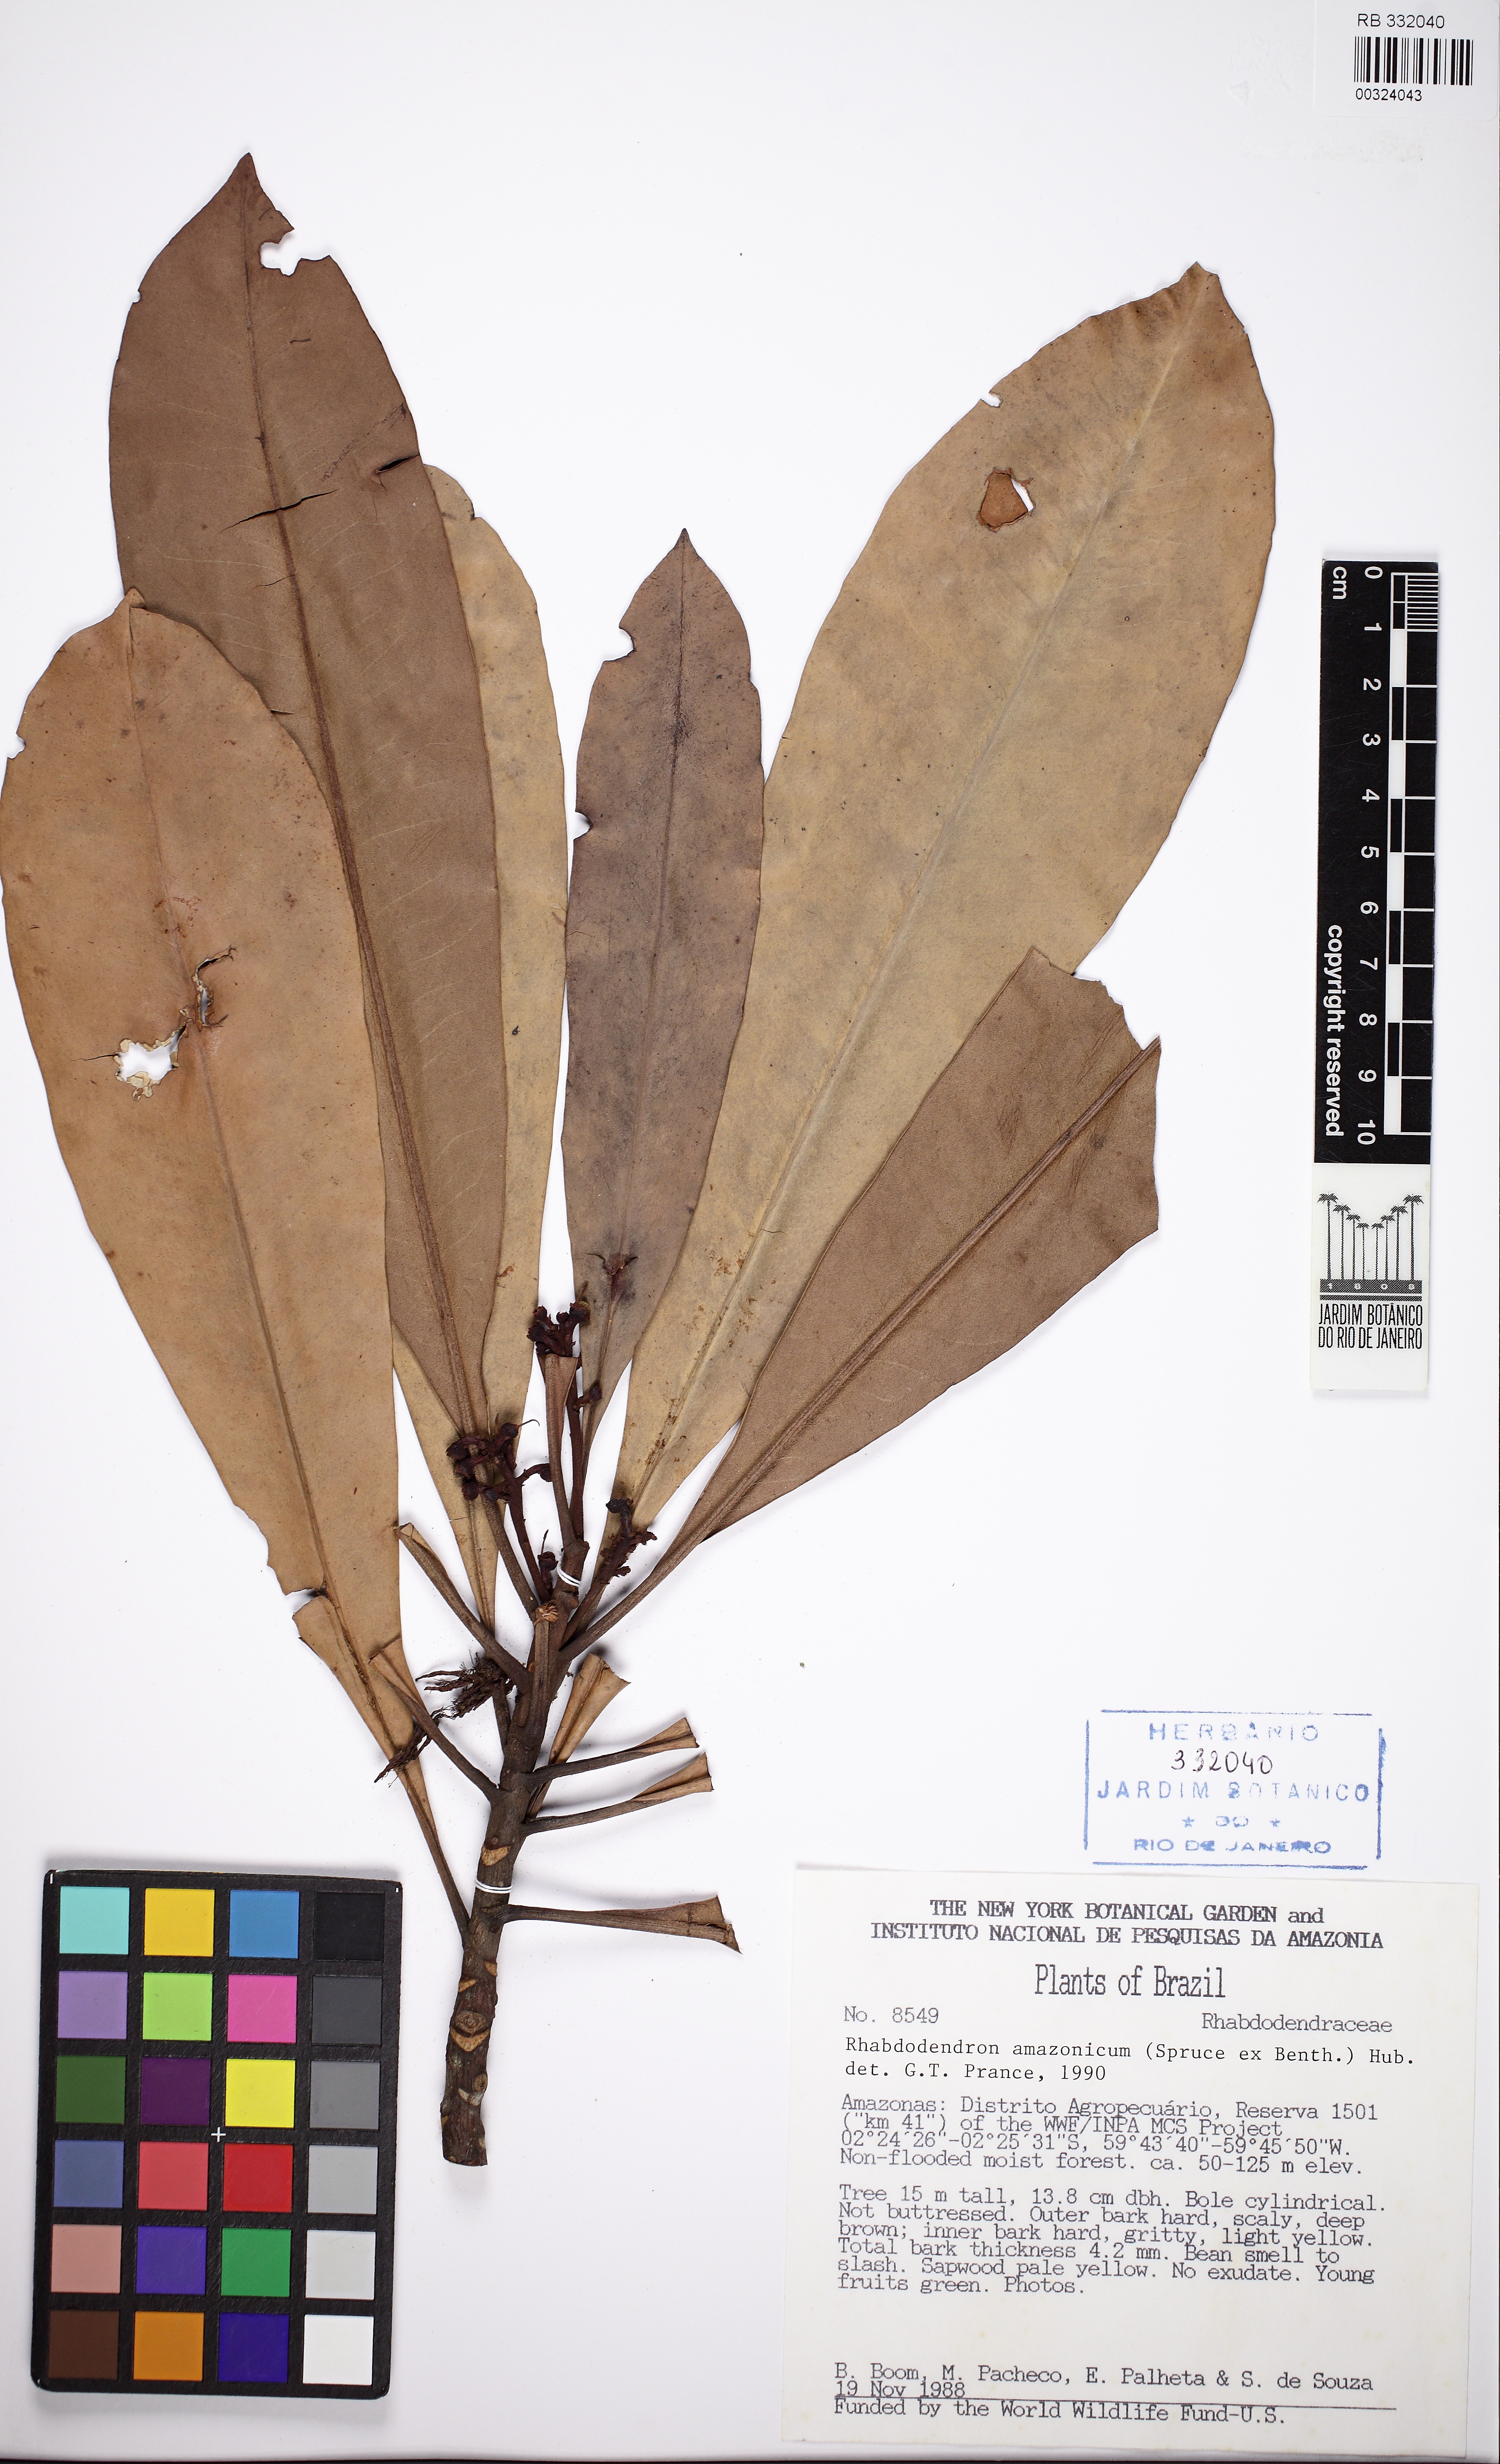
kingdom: Plantae
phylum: Tracheophyta
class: Magnoliopsida
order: Caryophyllales
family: Rhabdodendraceae
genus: Rhabdodendron
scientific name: Rhabdodendron amazonicum
